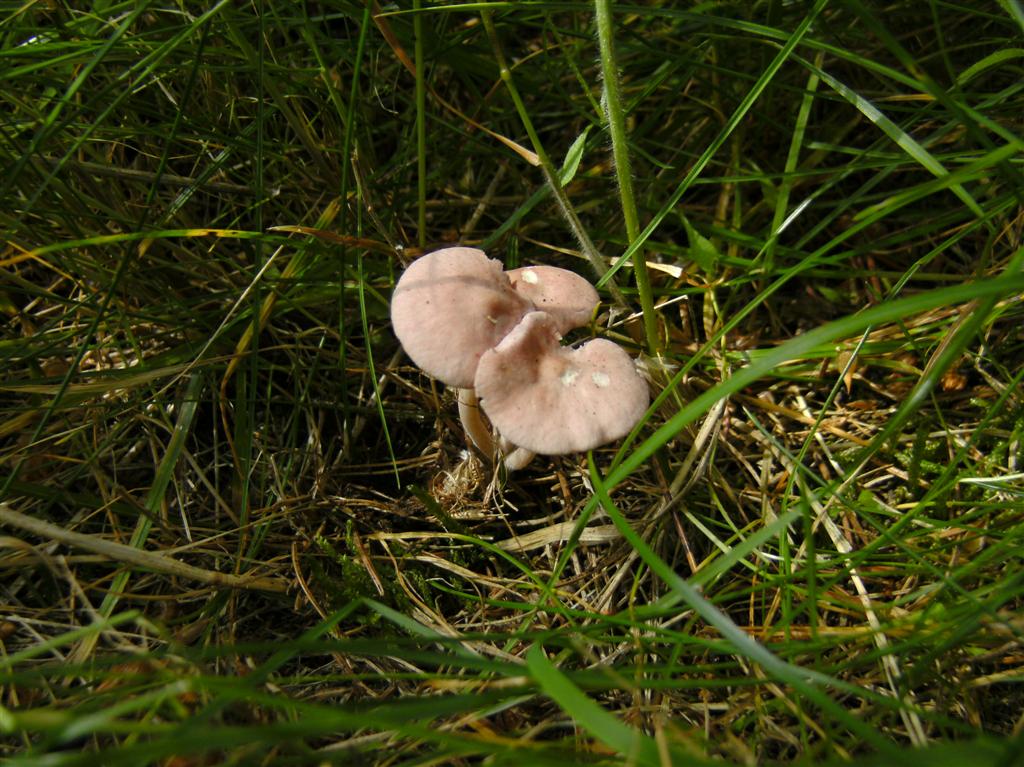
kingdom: Fungi
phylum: Basidiomycota
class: Agaricomycetes
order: Agaricales
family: Lyophyllaceae
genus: Calocybe
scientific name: Calocybe carnea
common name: rosa fagerhat
